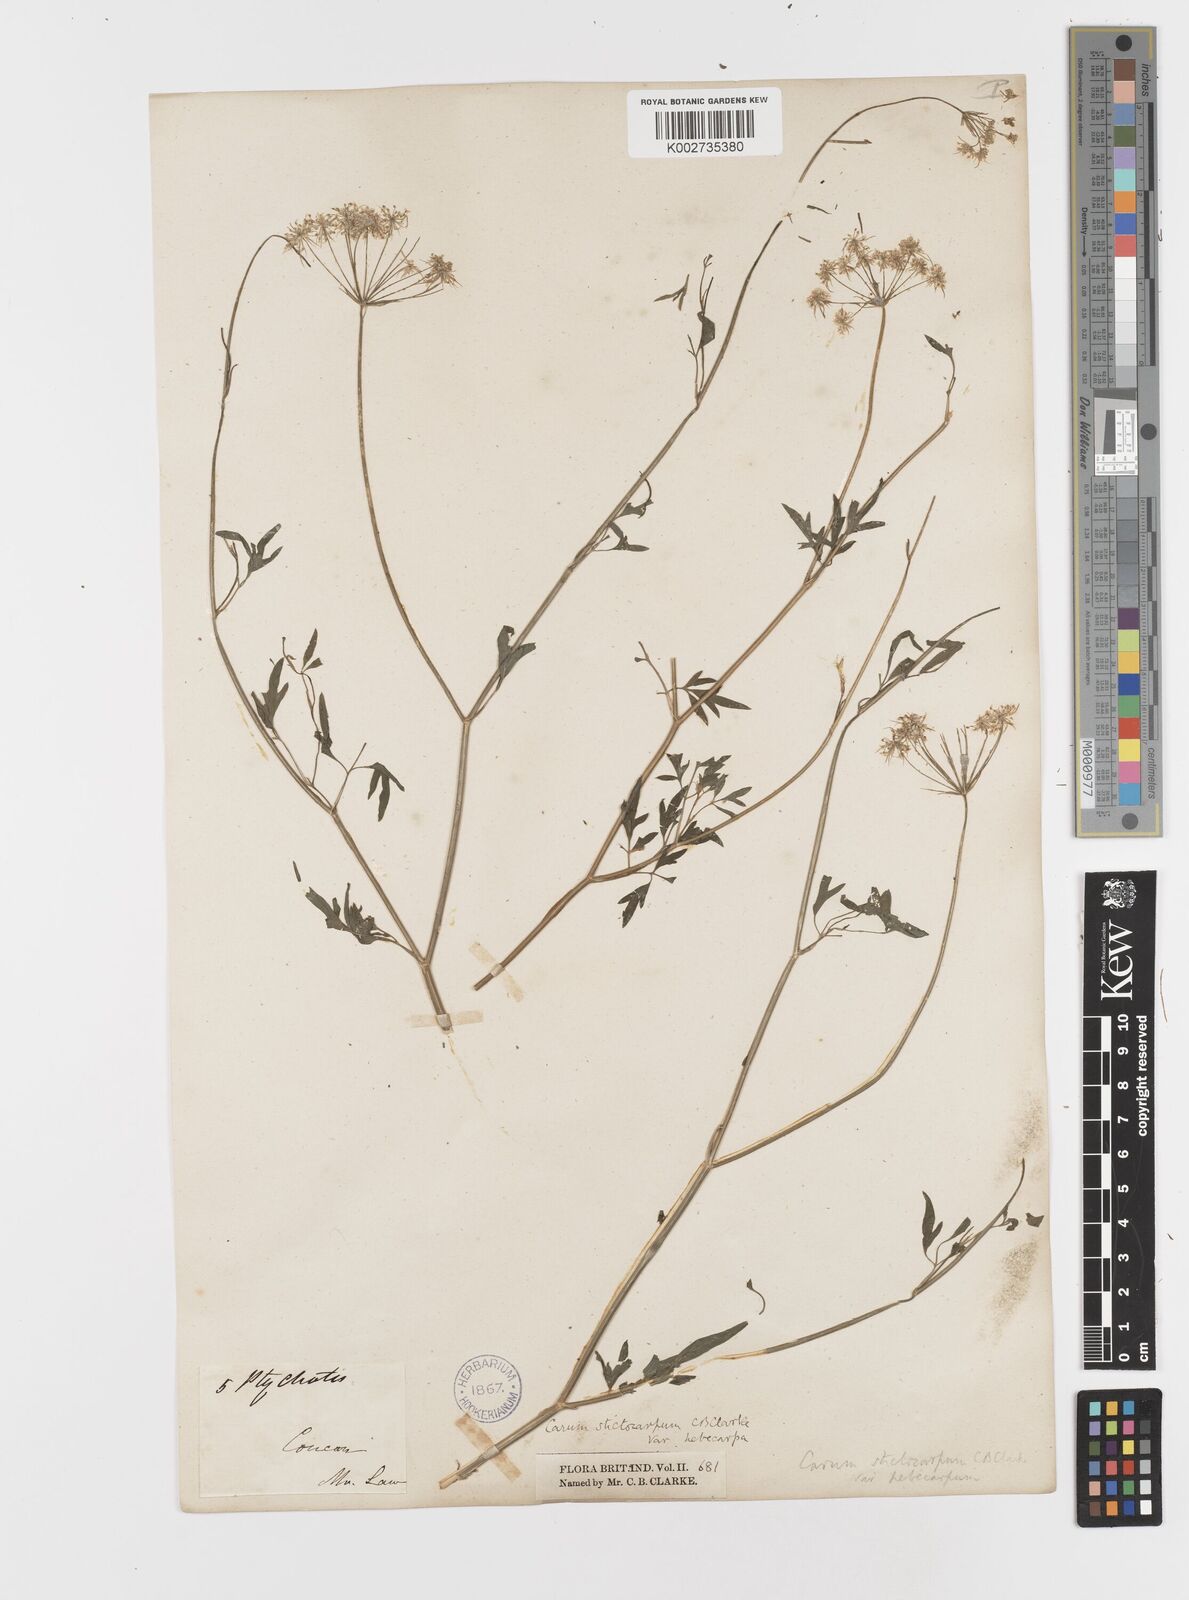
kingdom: Plantae
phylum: Tracheophyta
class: Magnoliopsida
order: Apiales
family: Apiaceae
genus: Psammogeton
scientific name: Psammogeton involucratum
